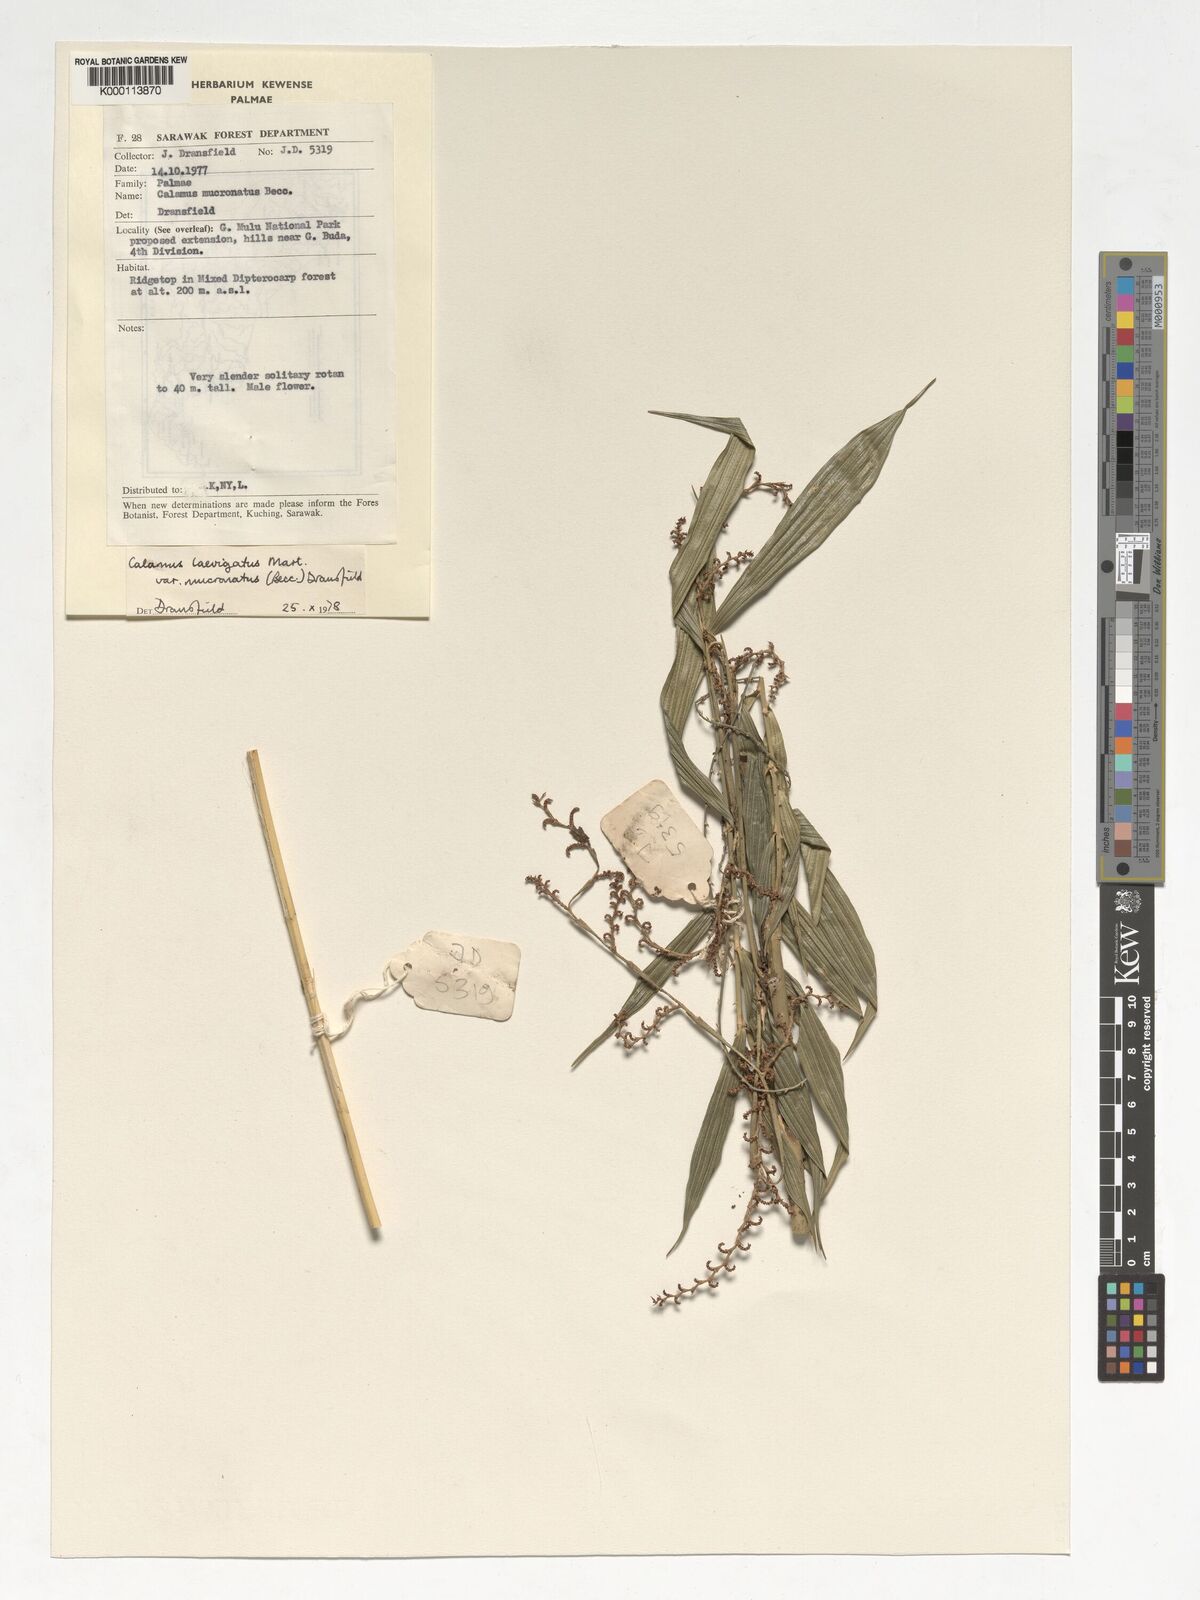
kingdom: Plantae
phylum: Tracheophyta
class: Liliopsida
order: Arecales
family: Arecaceae
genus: Calamus
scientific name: Calamus plicatus
